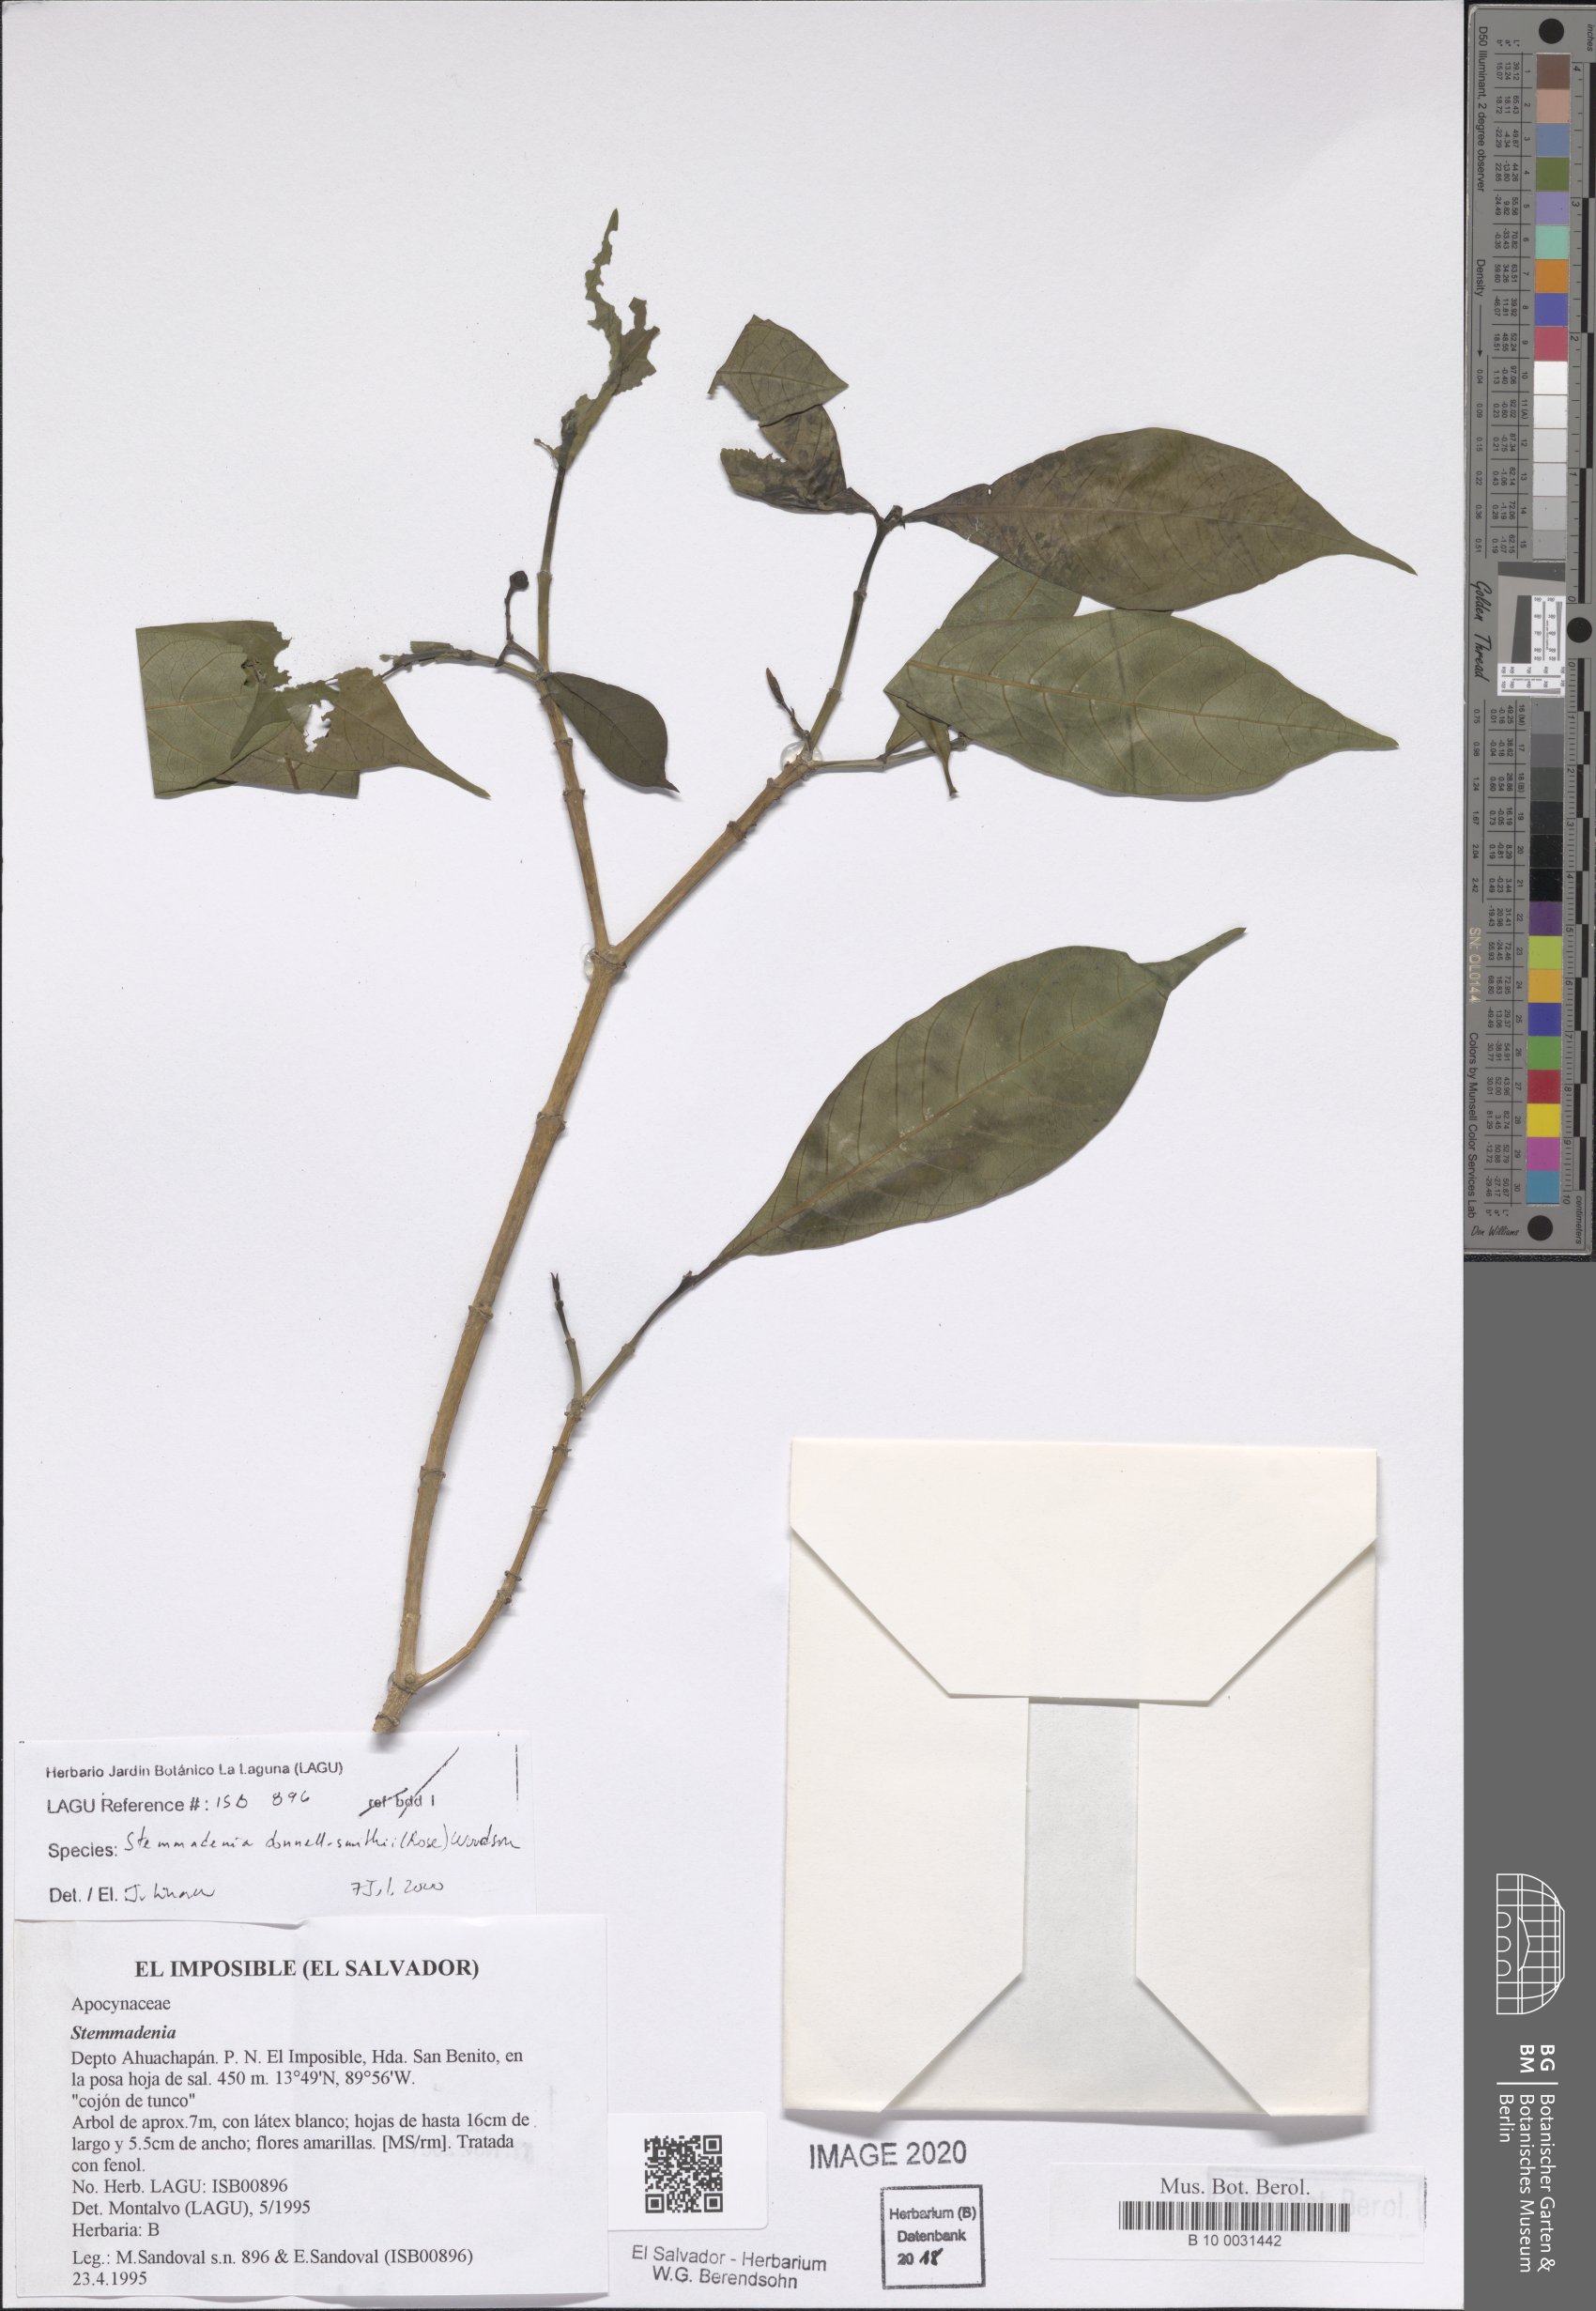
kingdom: Plantae
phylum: Tracheophyta
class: Magnoliopsida
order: Gentianales
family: Apocynaceae
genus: Tabernaemontana
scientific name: Tabernaemontana donnell-smithii
